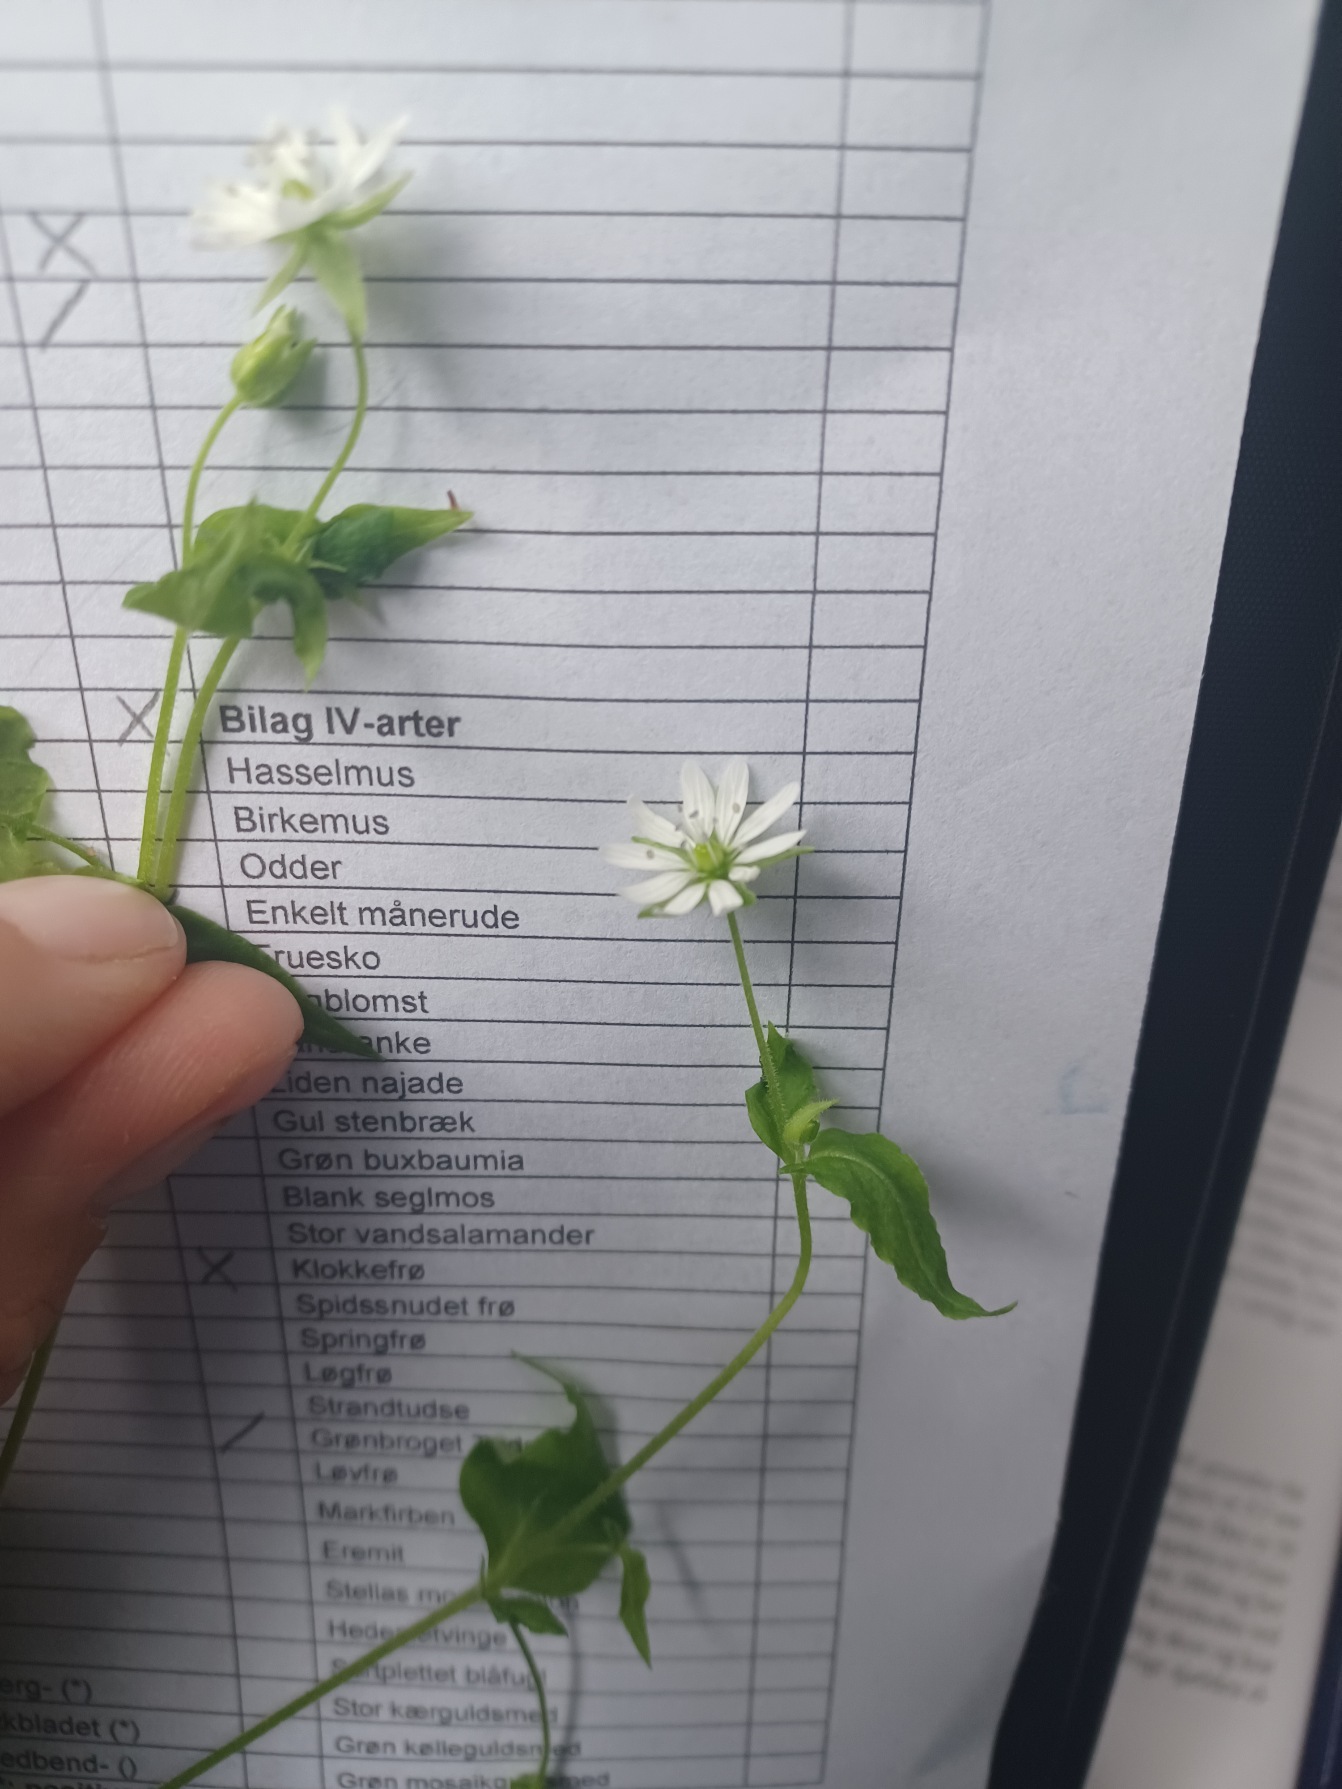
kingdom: Plantae
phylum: Tracheophyta
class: Magnoliopsida
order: Caryophyllales
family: Caryophyllaceae
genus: Stellaria
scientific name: Stellaria nemorum
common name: Nordlig lund-fladstjerne
